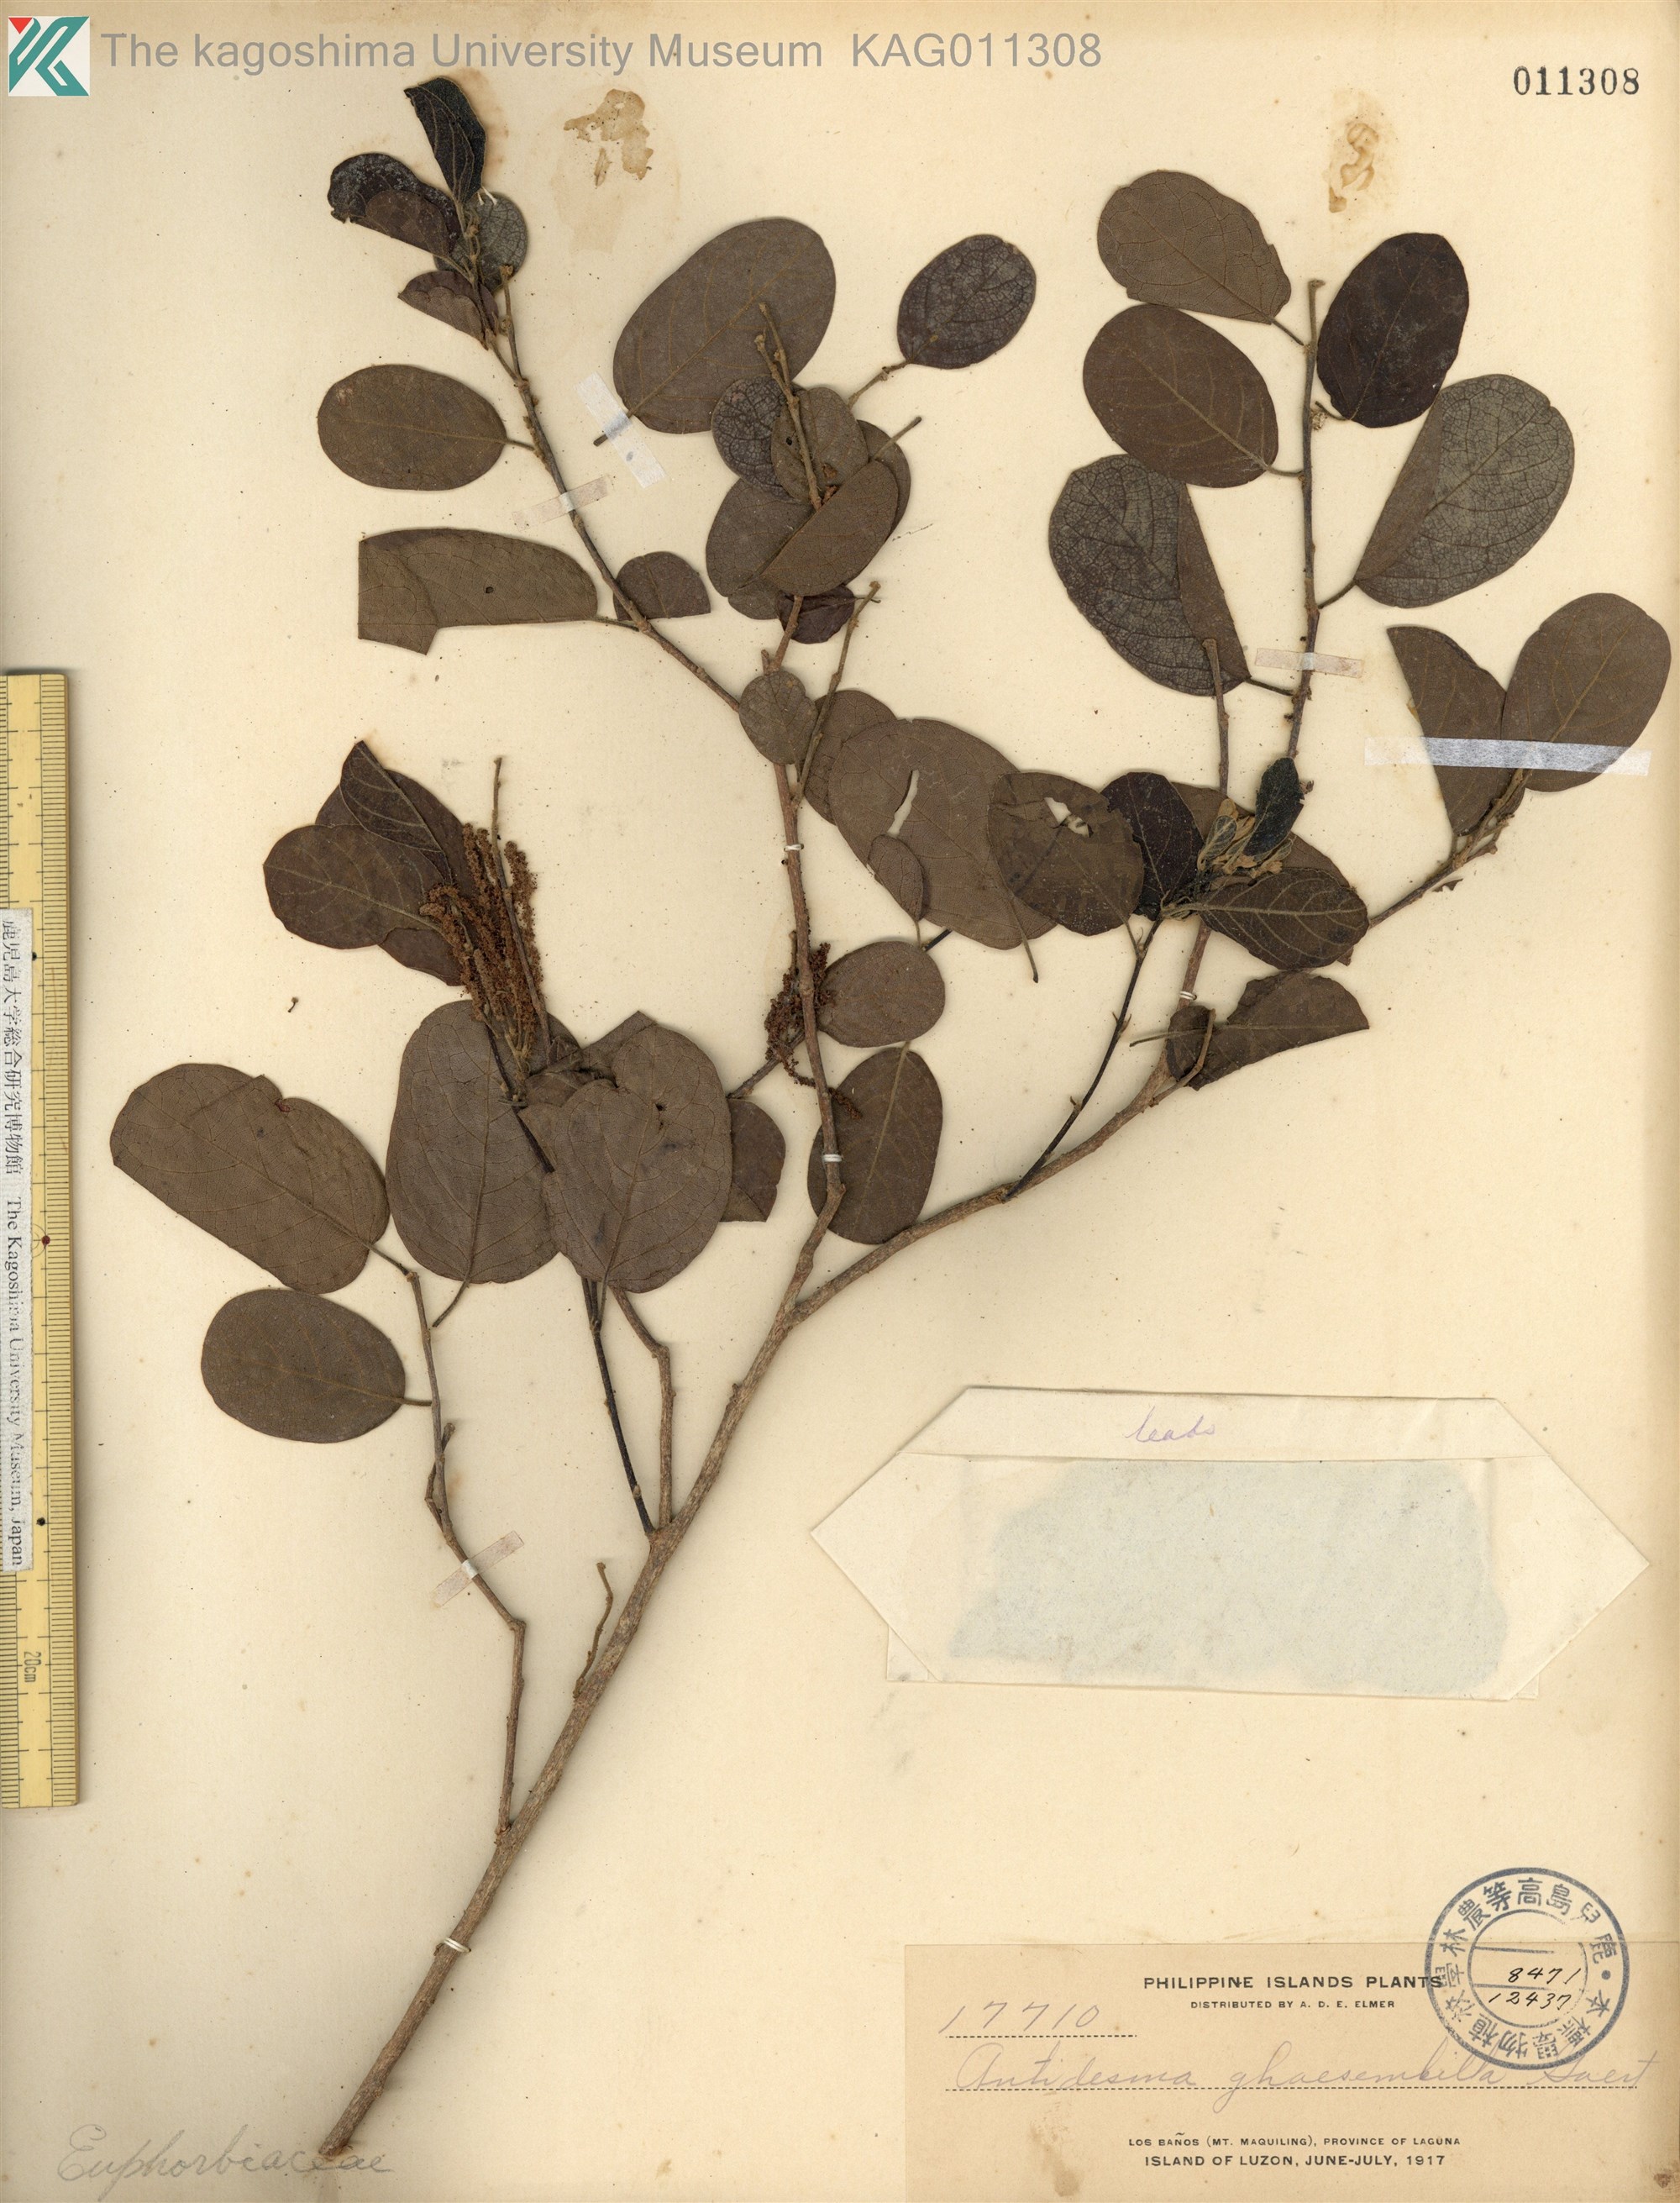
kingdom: Plantae
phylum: Tracheophyta
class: Magnoliopsida
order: Malpighiales
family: Phyllanthaceae
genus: Antidesma
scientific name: Antidesma ghaesembilla
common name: Black currant-tree
